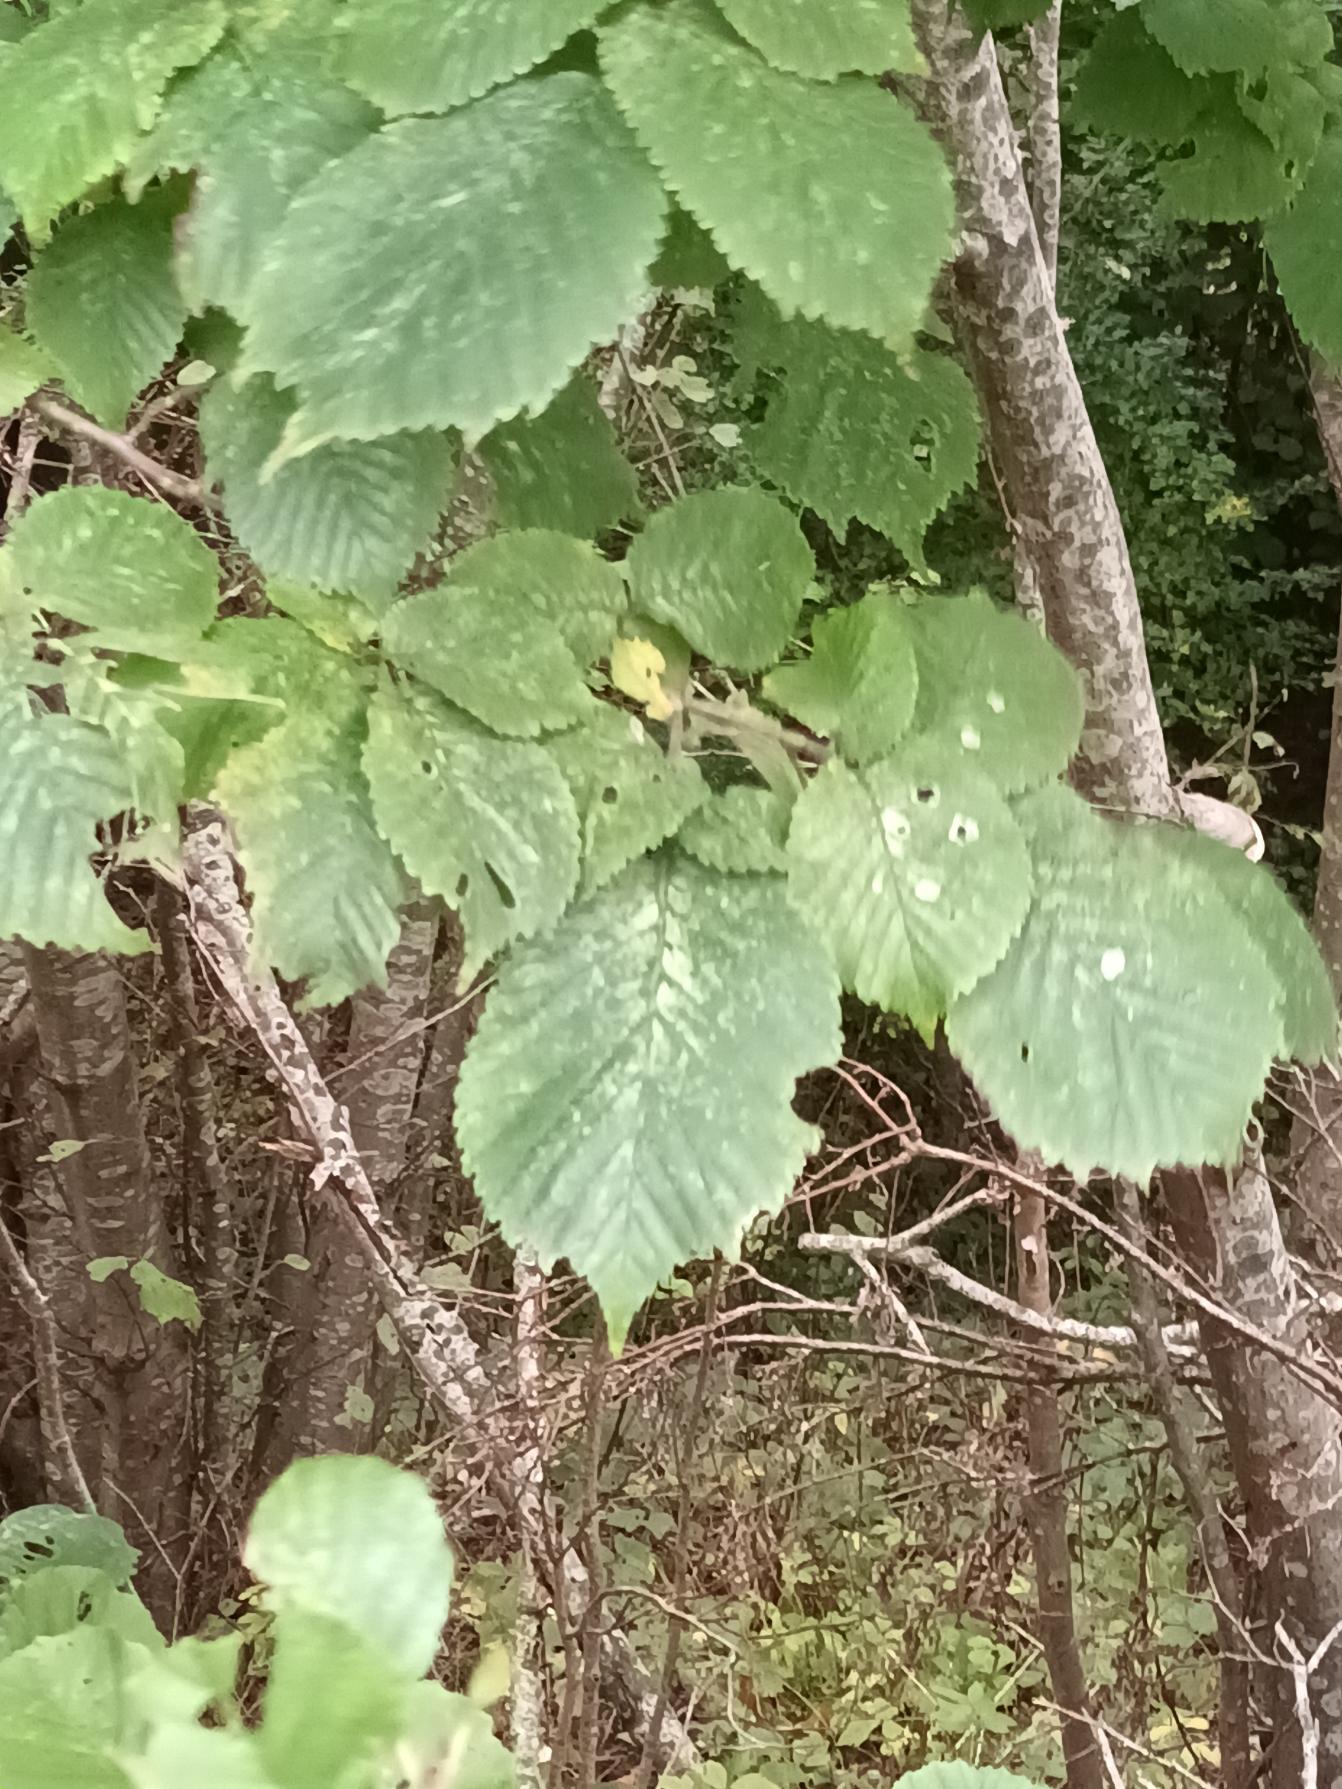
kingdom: Plantae
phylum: Tracheophyta
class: Magnoliopsida
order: Rosales
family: Ulmaceae
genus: Ulmus
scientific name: Ulmus glabra
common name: Skov-elm/storbladet elm
